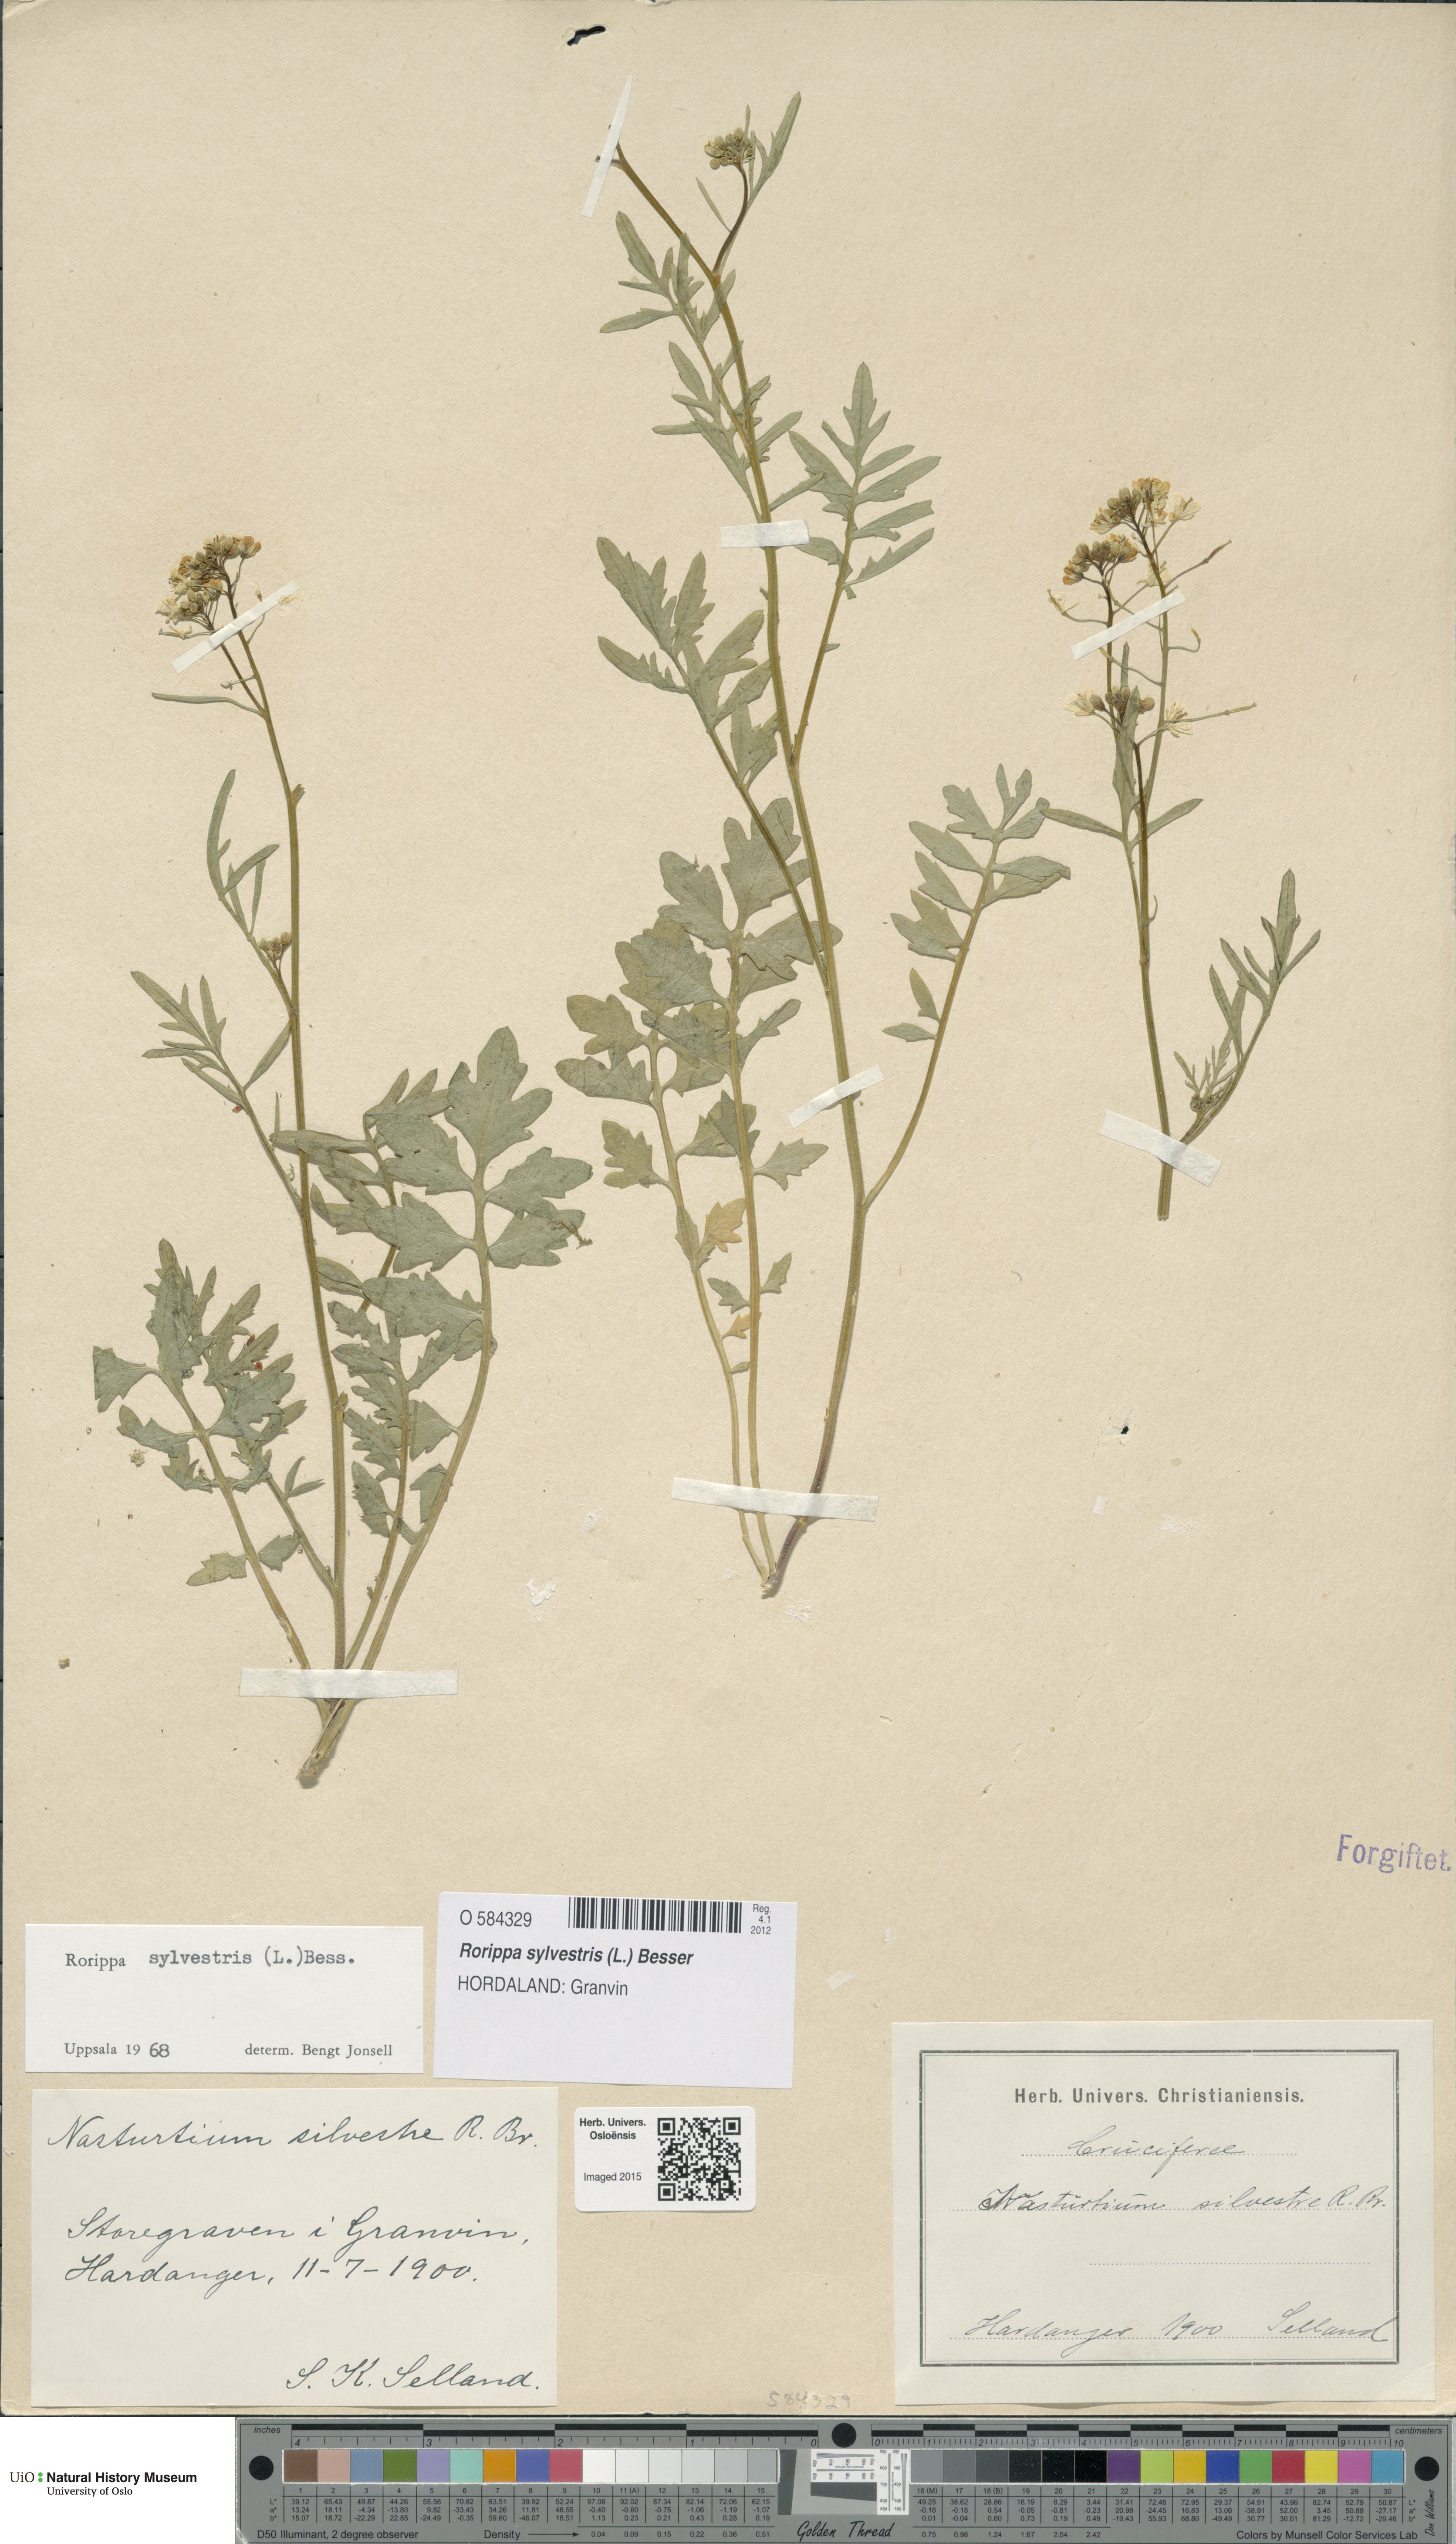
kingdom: Plantae
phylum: Tracheophyta
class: Magnoliopsida
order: Brassicales
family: Brassicaceae
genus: Rorippa
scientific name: Rorippa sylvestris
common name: Creeping yellowcress
